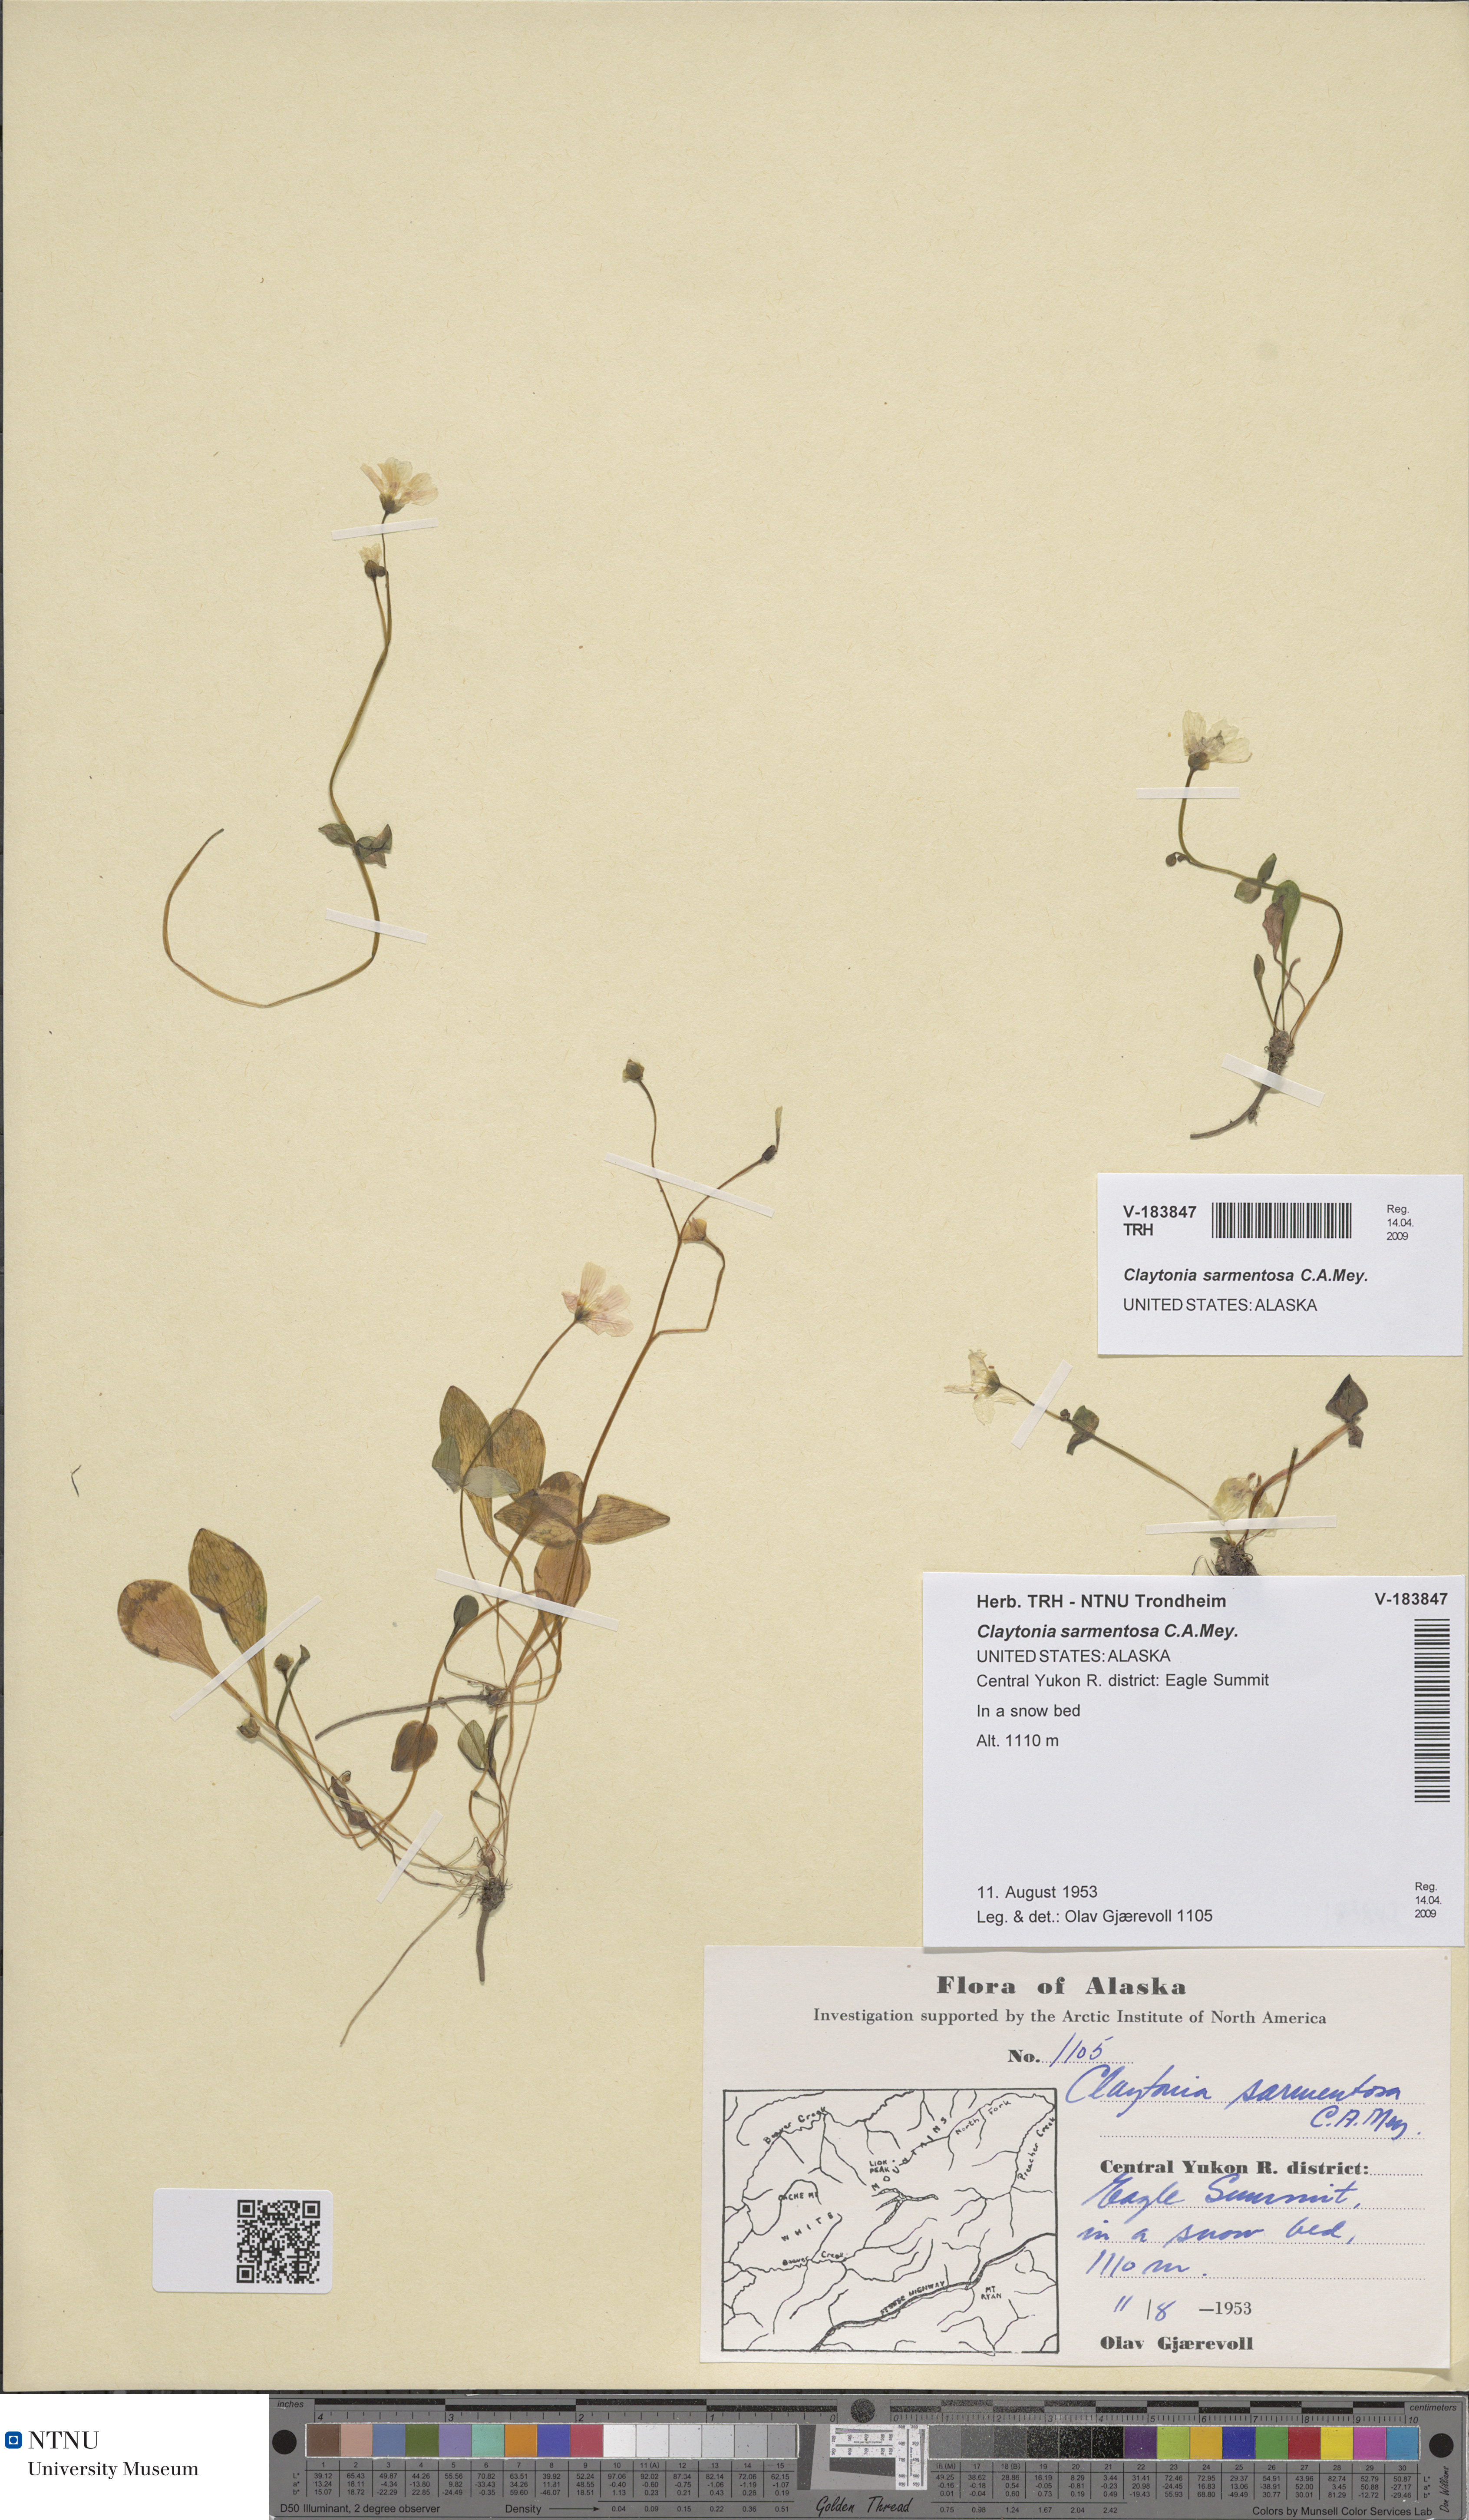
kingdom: Plantae
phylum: Tracheophyta
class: Magnoliopsida
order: Caryophyllales
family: Montiaceae
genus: Claytonia
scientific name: Claytonia sarmentosa
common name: Alaska spring beauty
